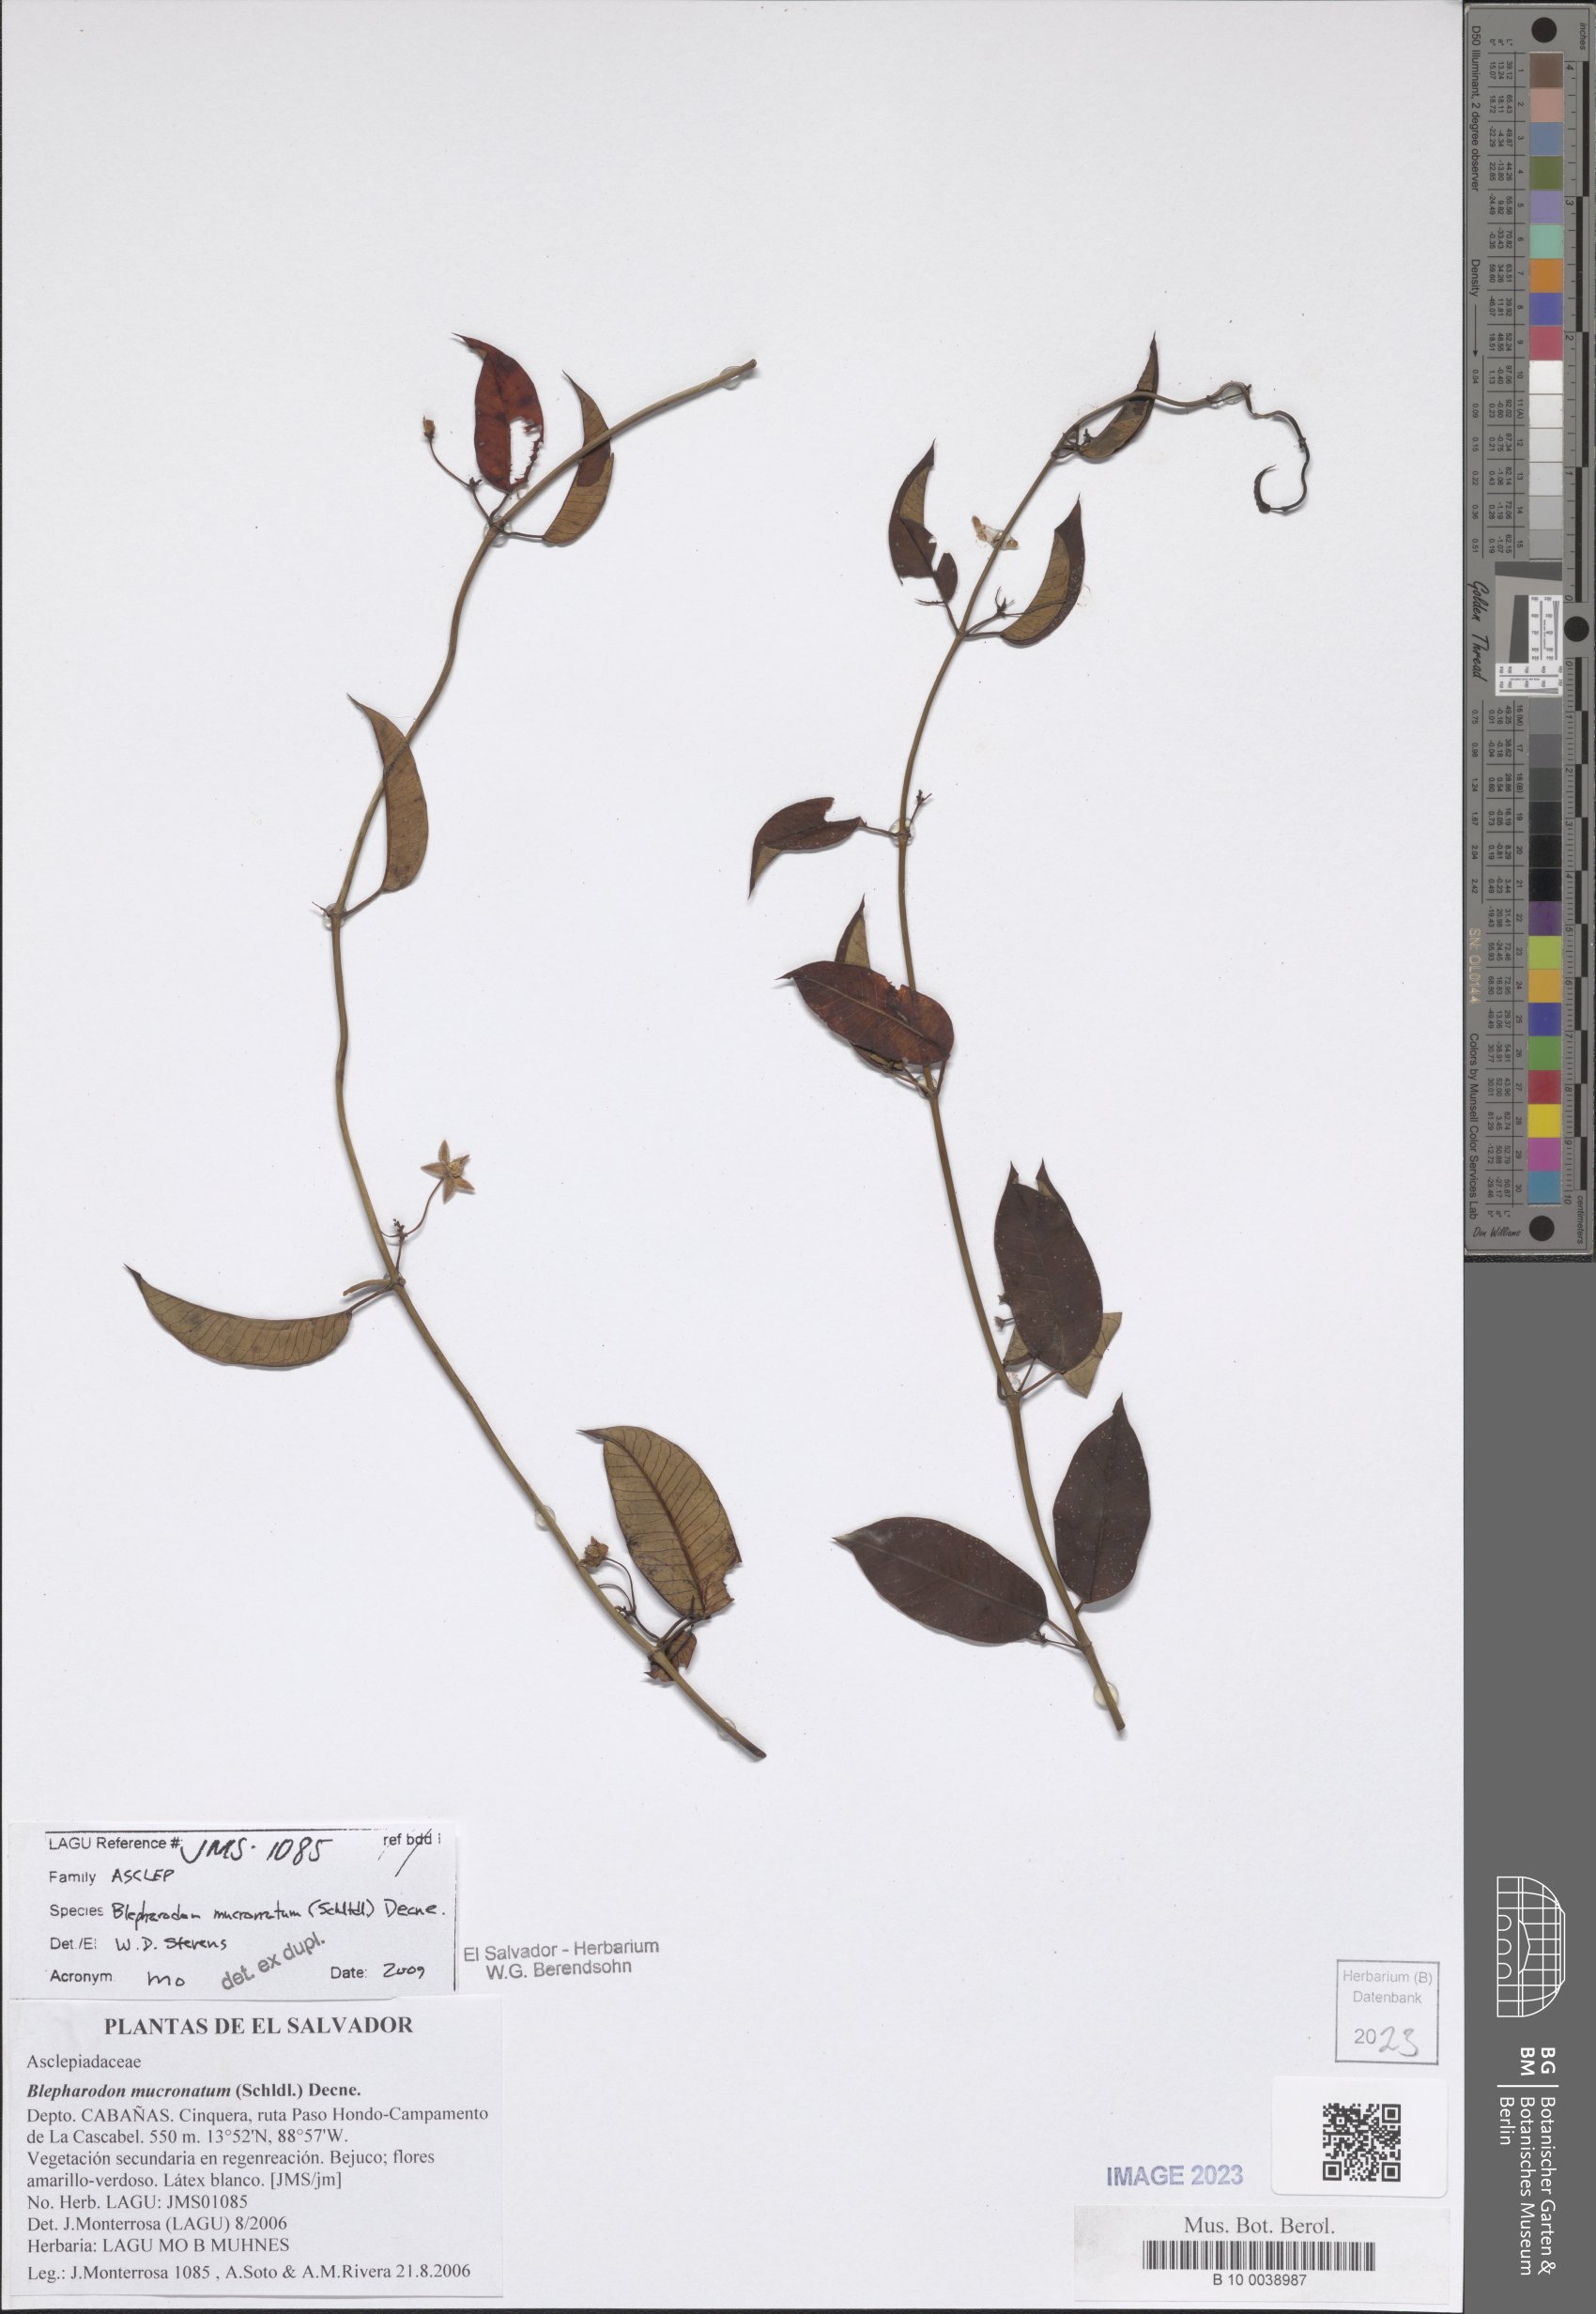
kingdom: Plantae
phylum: Tracheophyta
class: Magnoliopsida
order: Gentianales
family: Apocynaceae
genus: Vailia
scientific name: Vailia anomala
